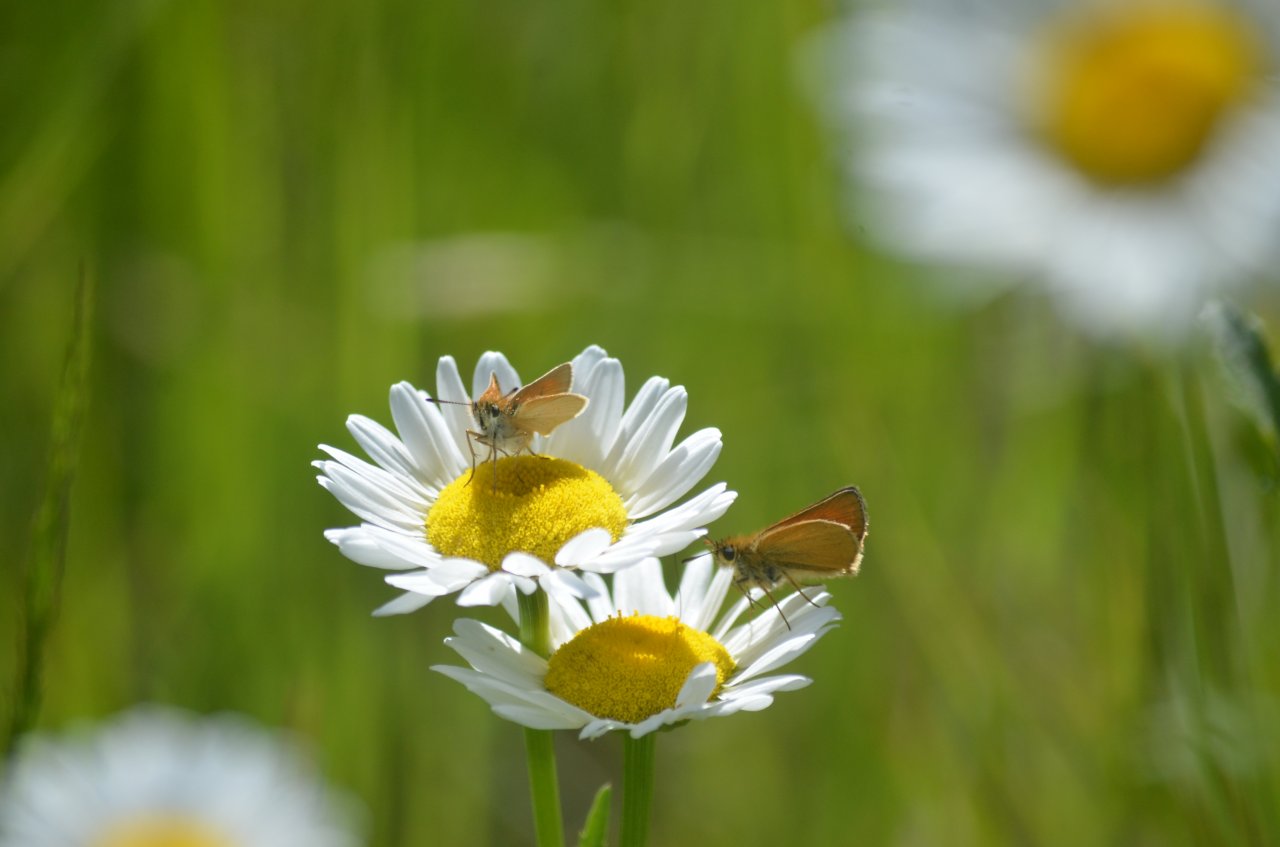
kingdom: Animalia
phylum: Arthropoda
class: Insecta
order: Lepidoptera
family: Hesperiidae
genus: Thymelicus
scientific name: Thymelicus lineola
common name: European Skipper
